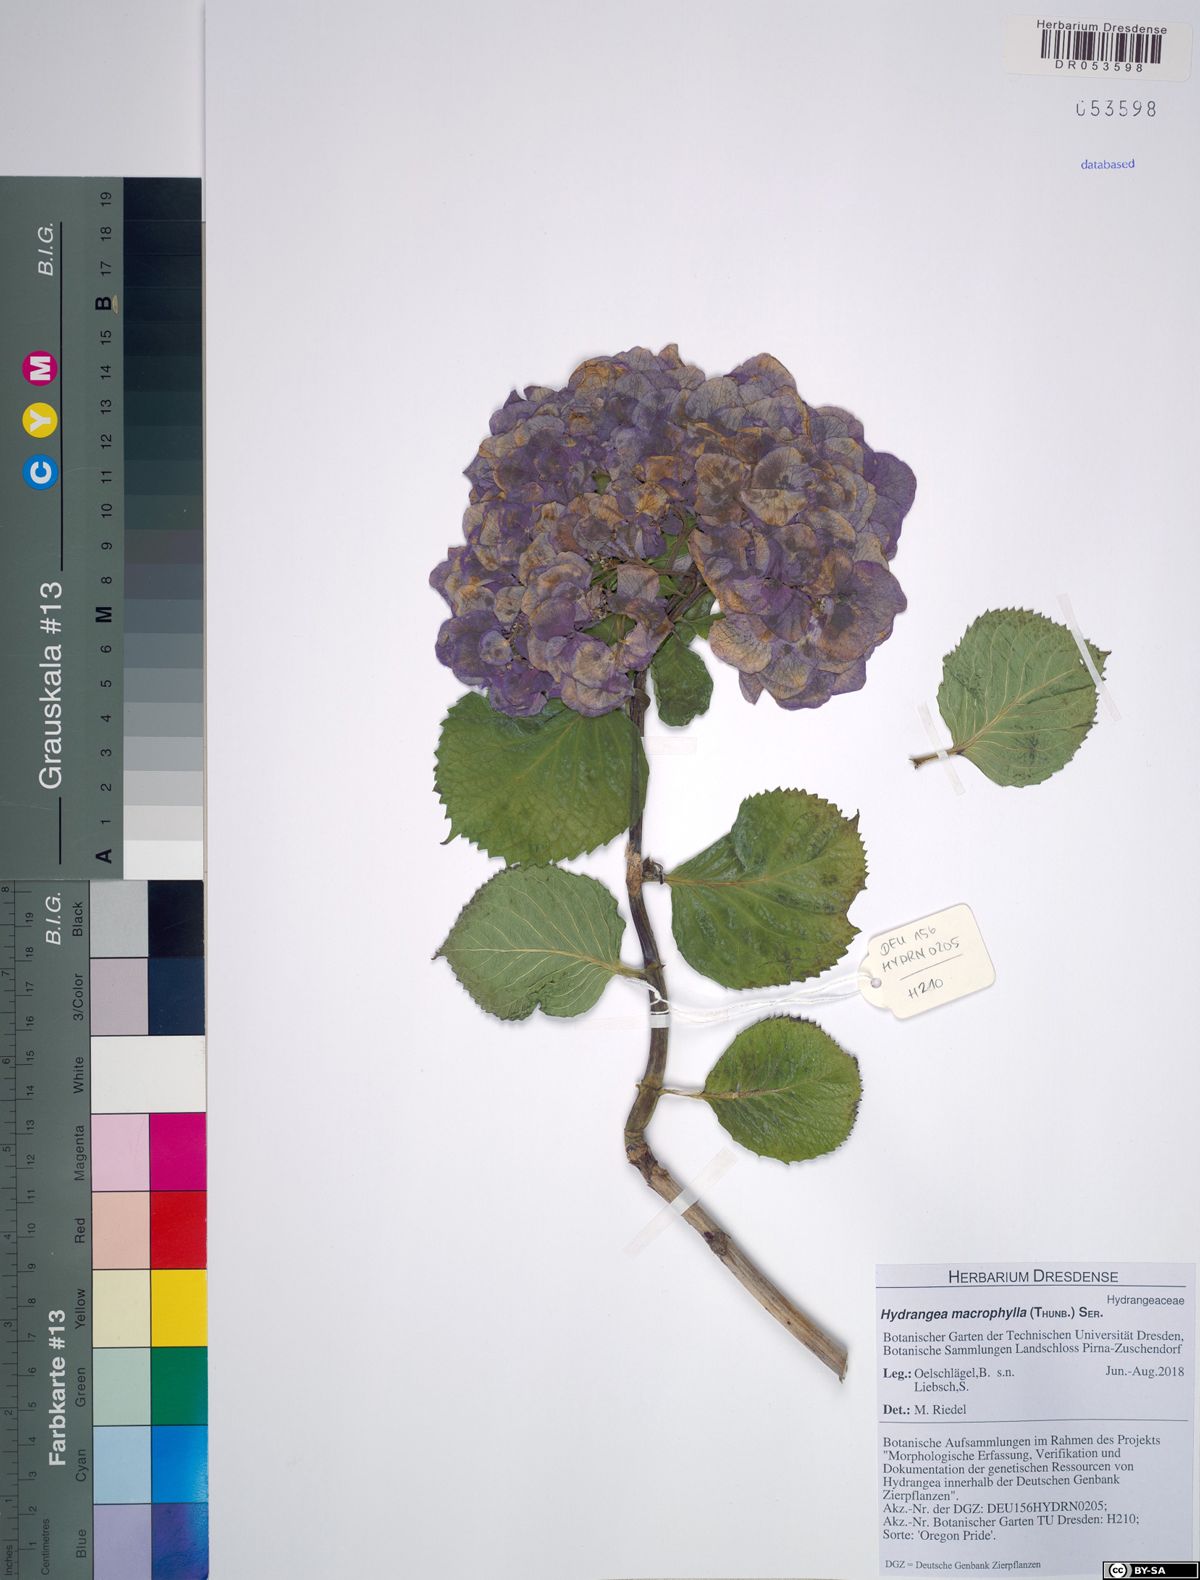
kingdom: Plantae
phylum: Tracheophyta
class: Magnoliopsida
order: Cornales
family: Hydrangeaceae
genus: Hydrangea
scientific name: Hydrangea macrophylla
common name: Hydrangea
